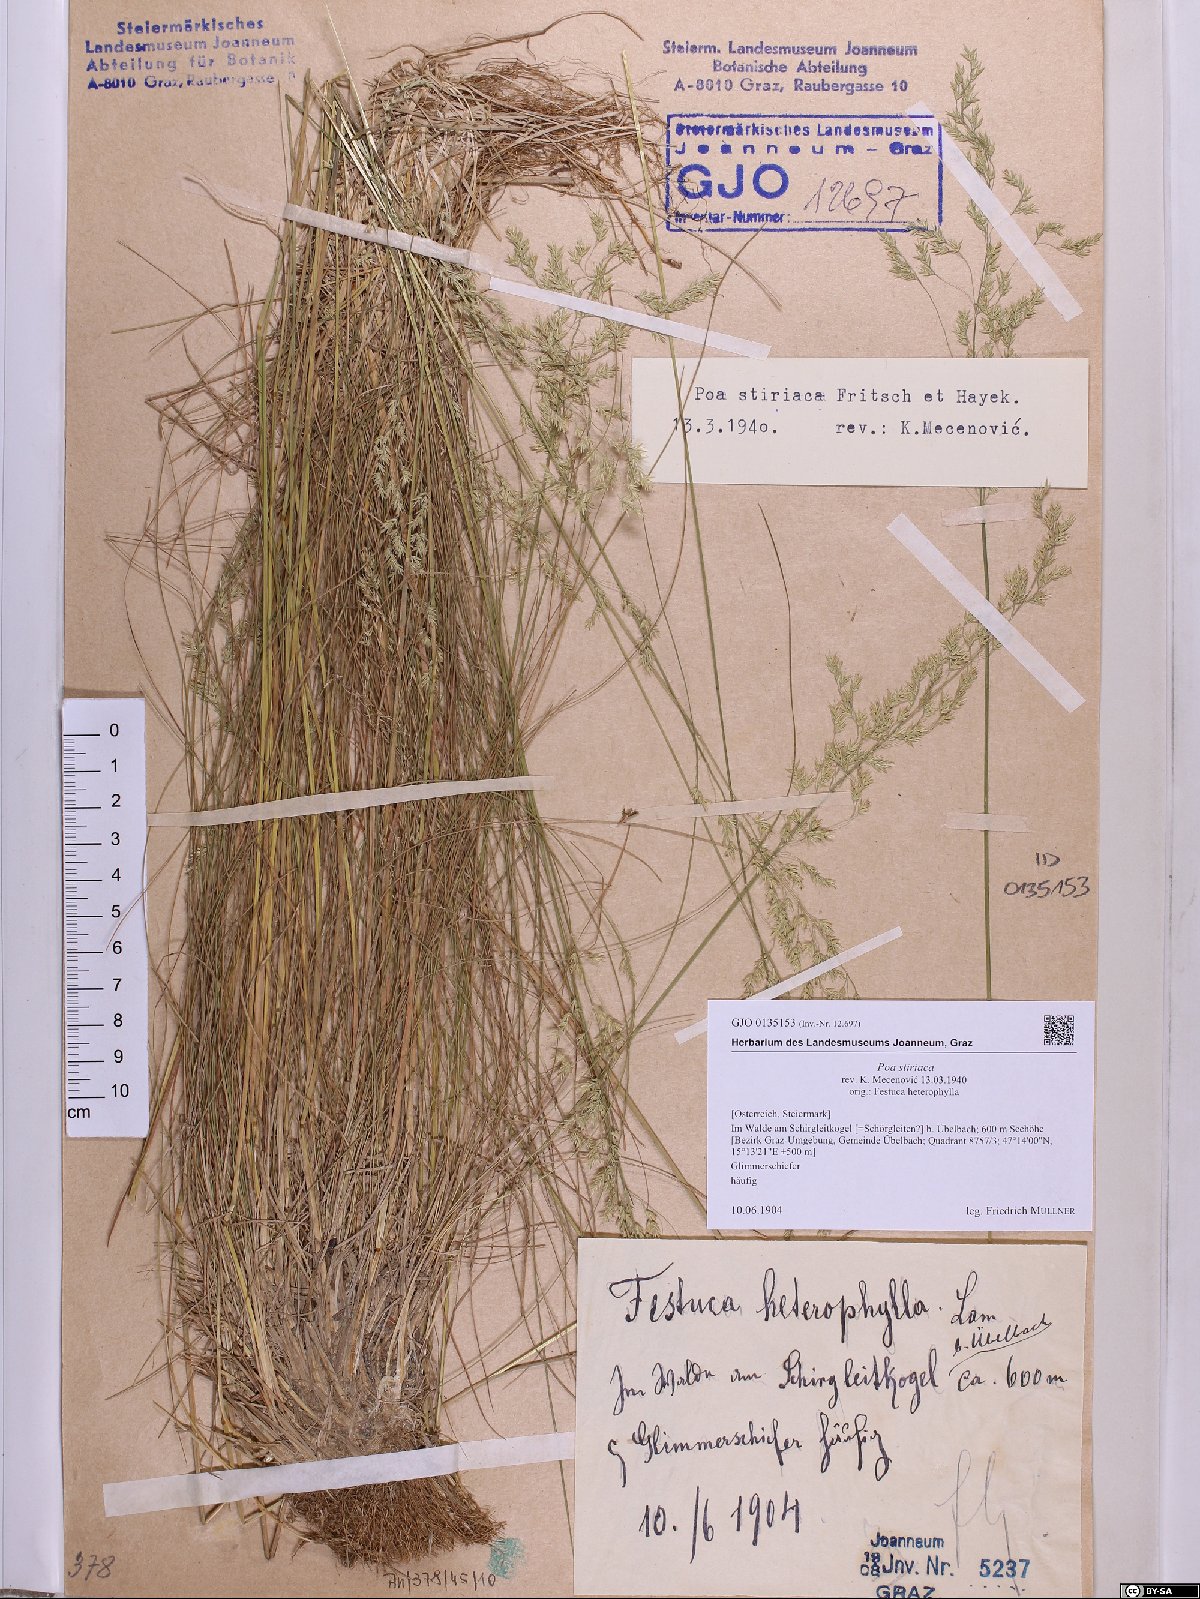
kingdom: Plantae
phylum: Tracheophyta
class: Liliopsida
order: Poales
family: Poaceae
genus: Poa
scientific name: Poa stiriaca
